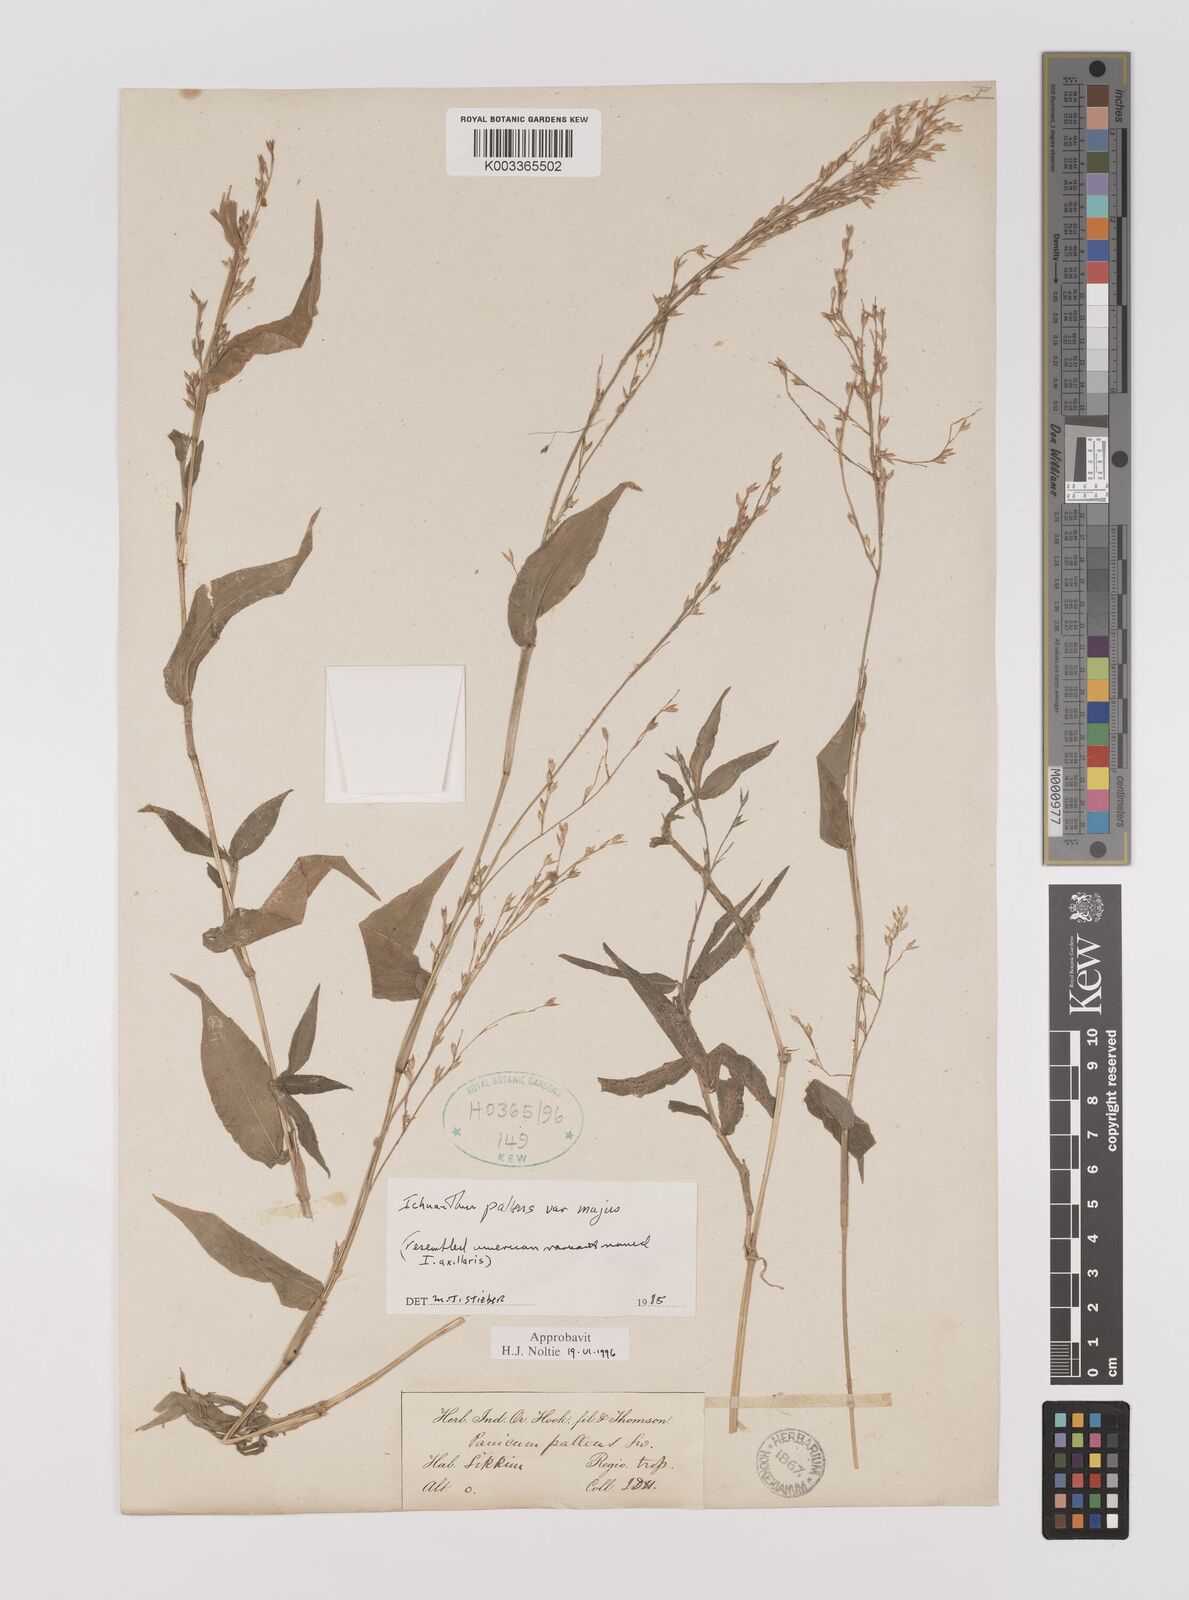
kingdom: Plantae
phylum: Tracheophyta
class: Liliopsida
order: Poales
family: Poaceae
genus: Ichnanthus
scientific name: Ichnanthus pallens
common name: Water grass
